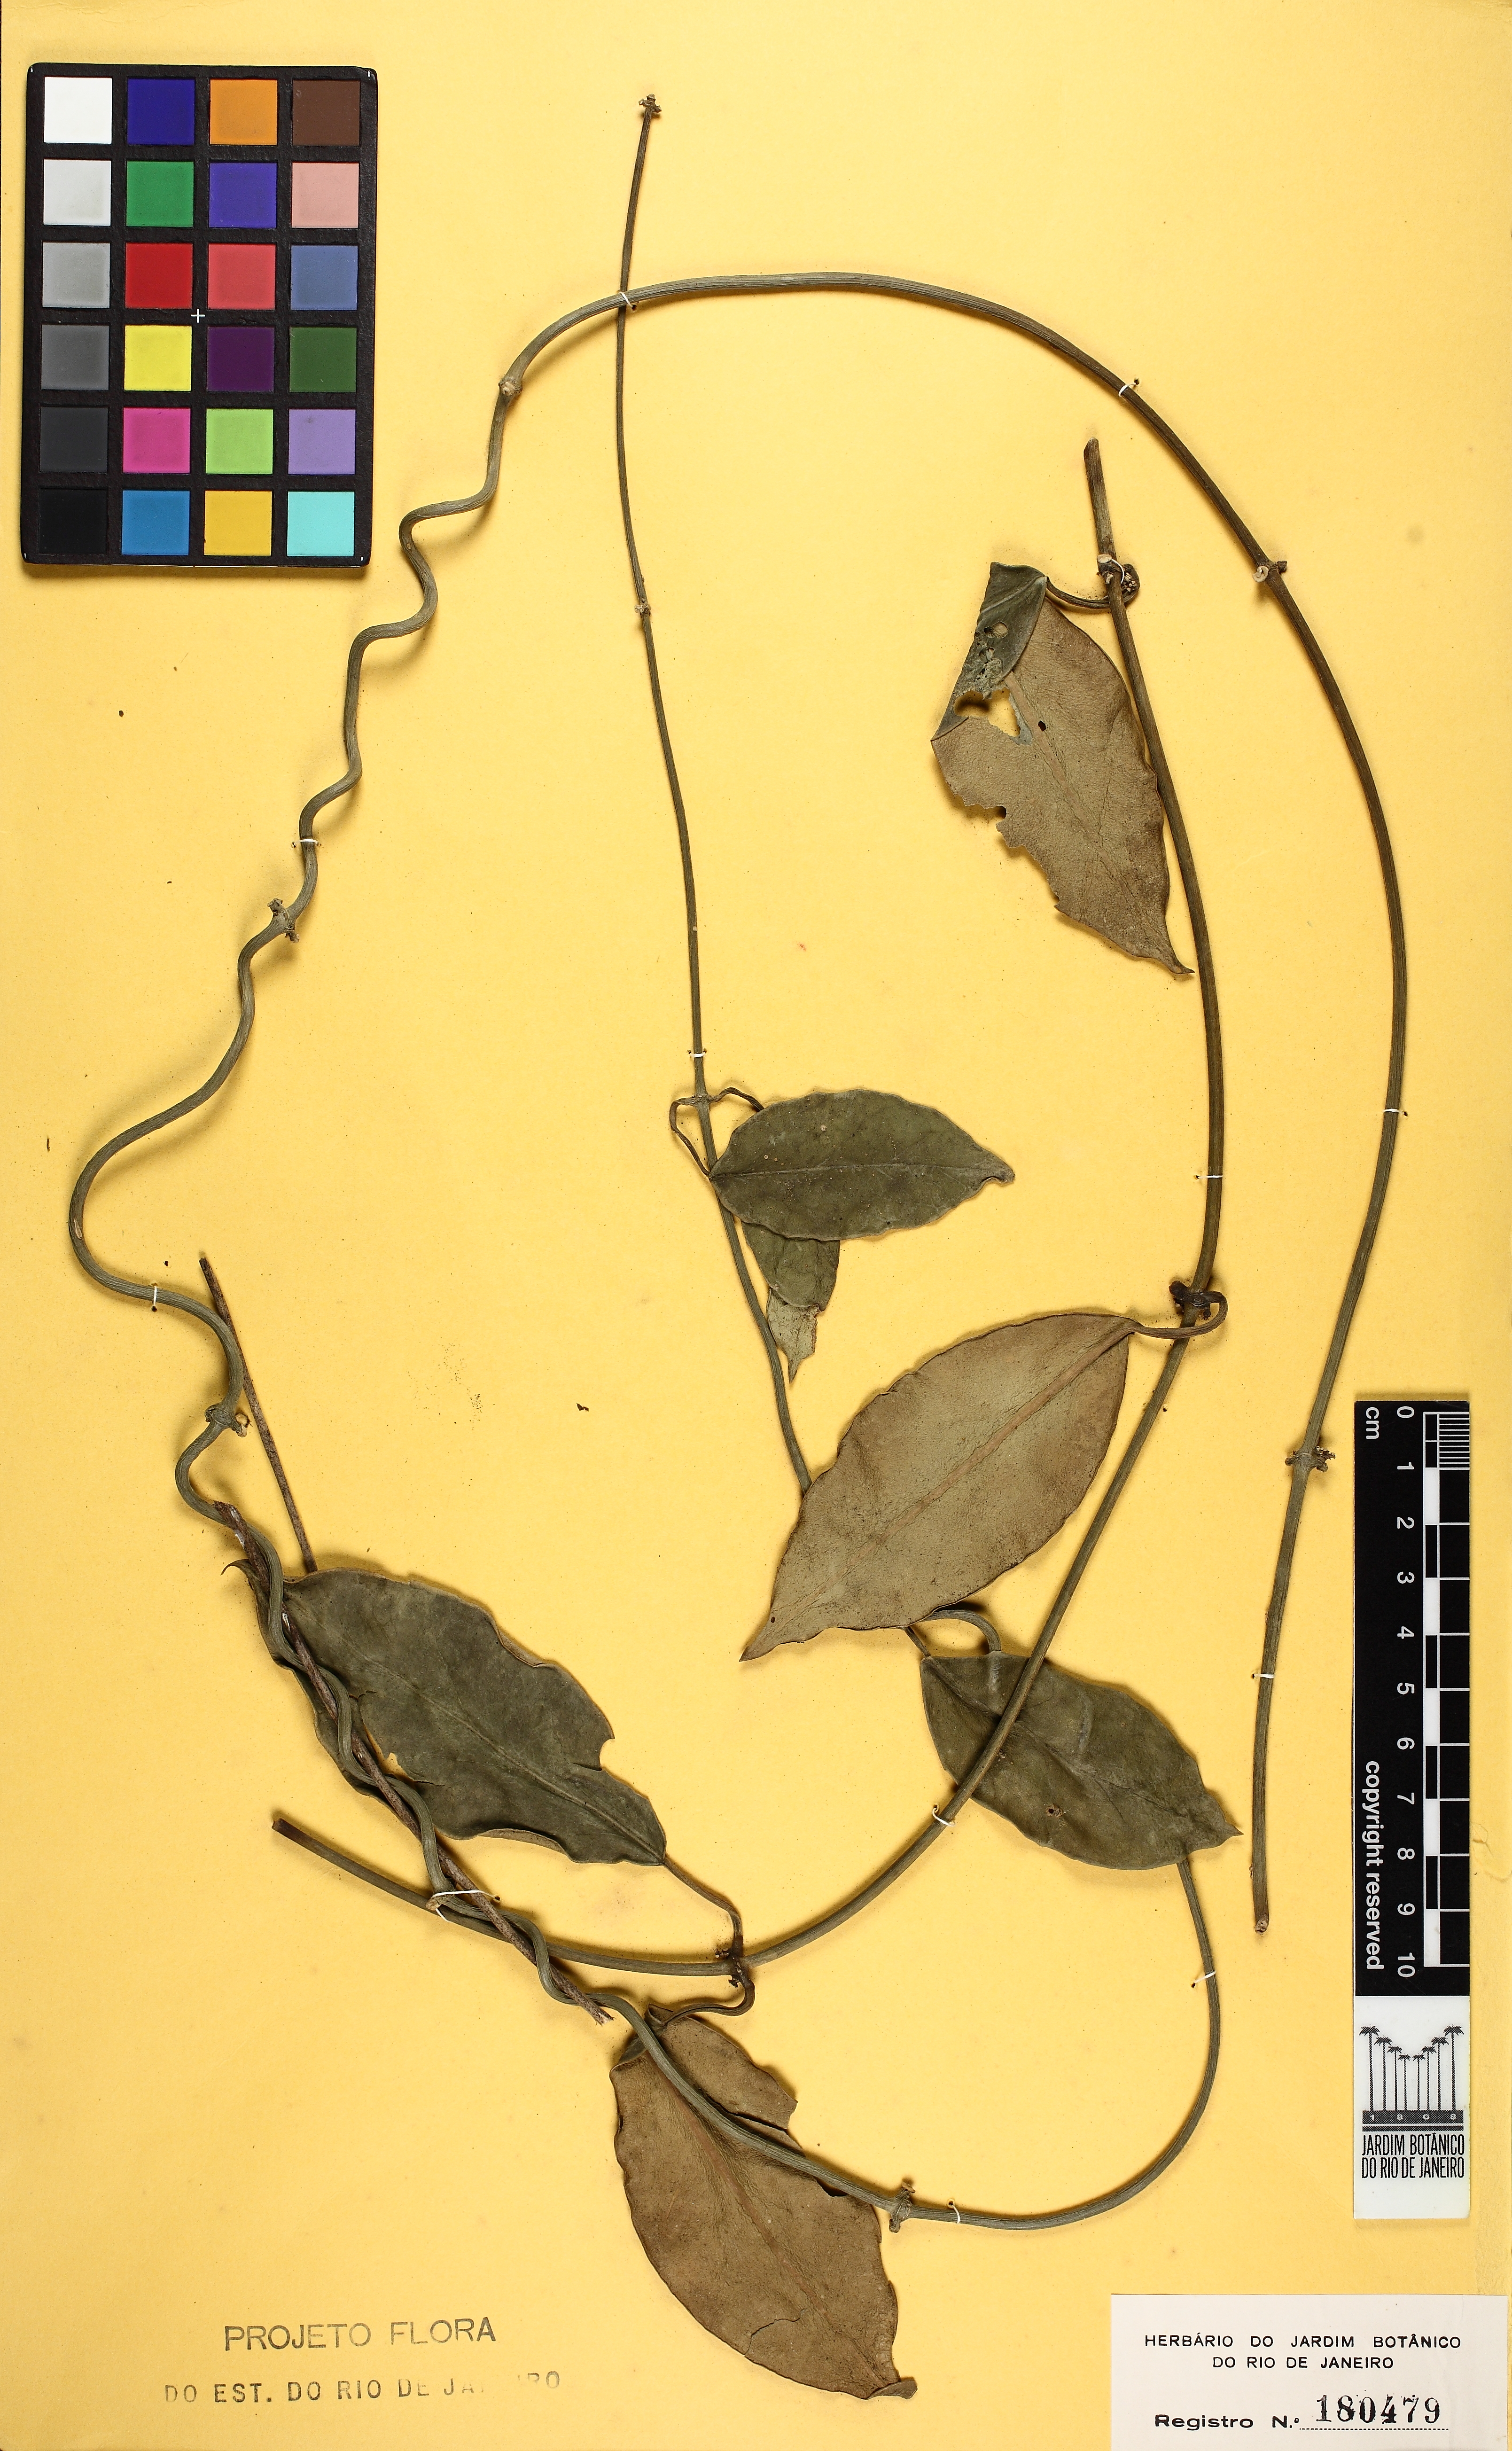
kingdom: Plantae
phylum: Tracheophyta
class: Magnoliopsida
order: Gentianales
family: Apocynaceae
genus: Jobinia
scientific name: Jobinia grandis
